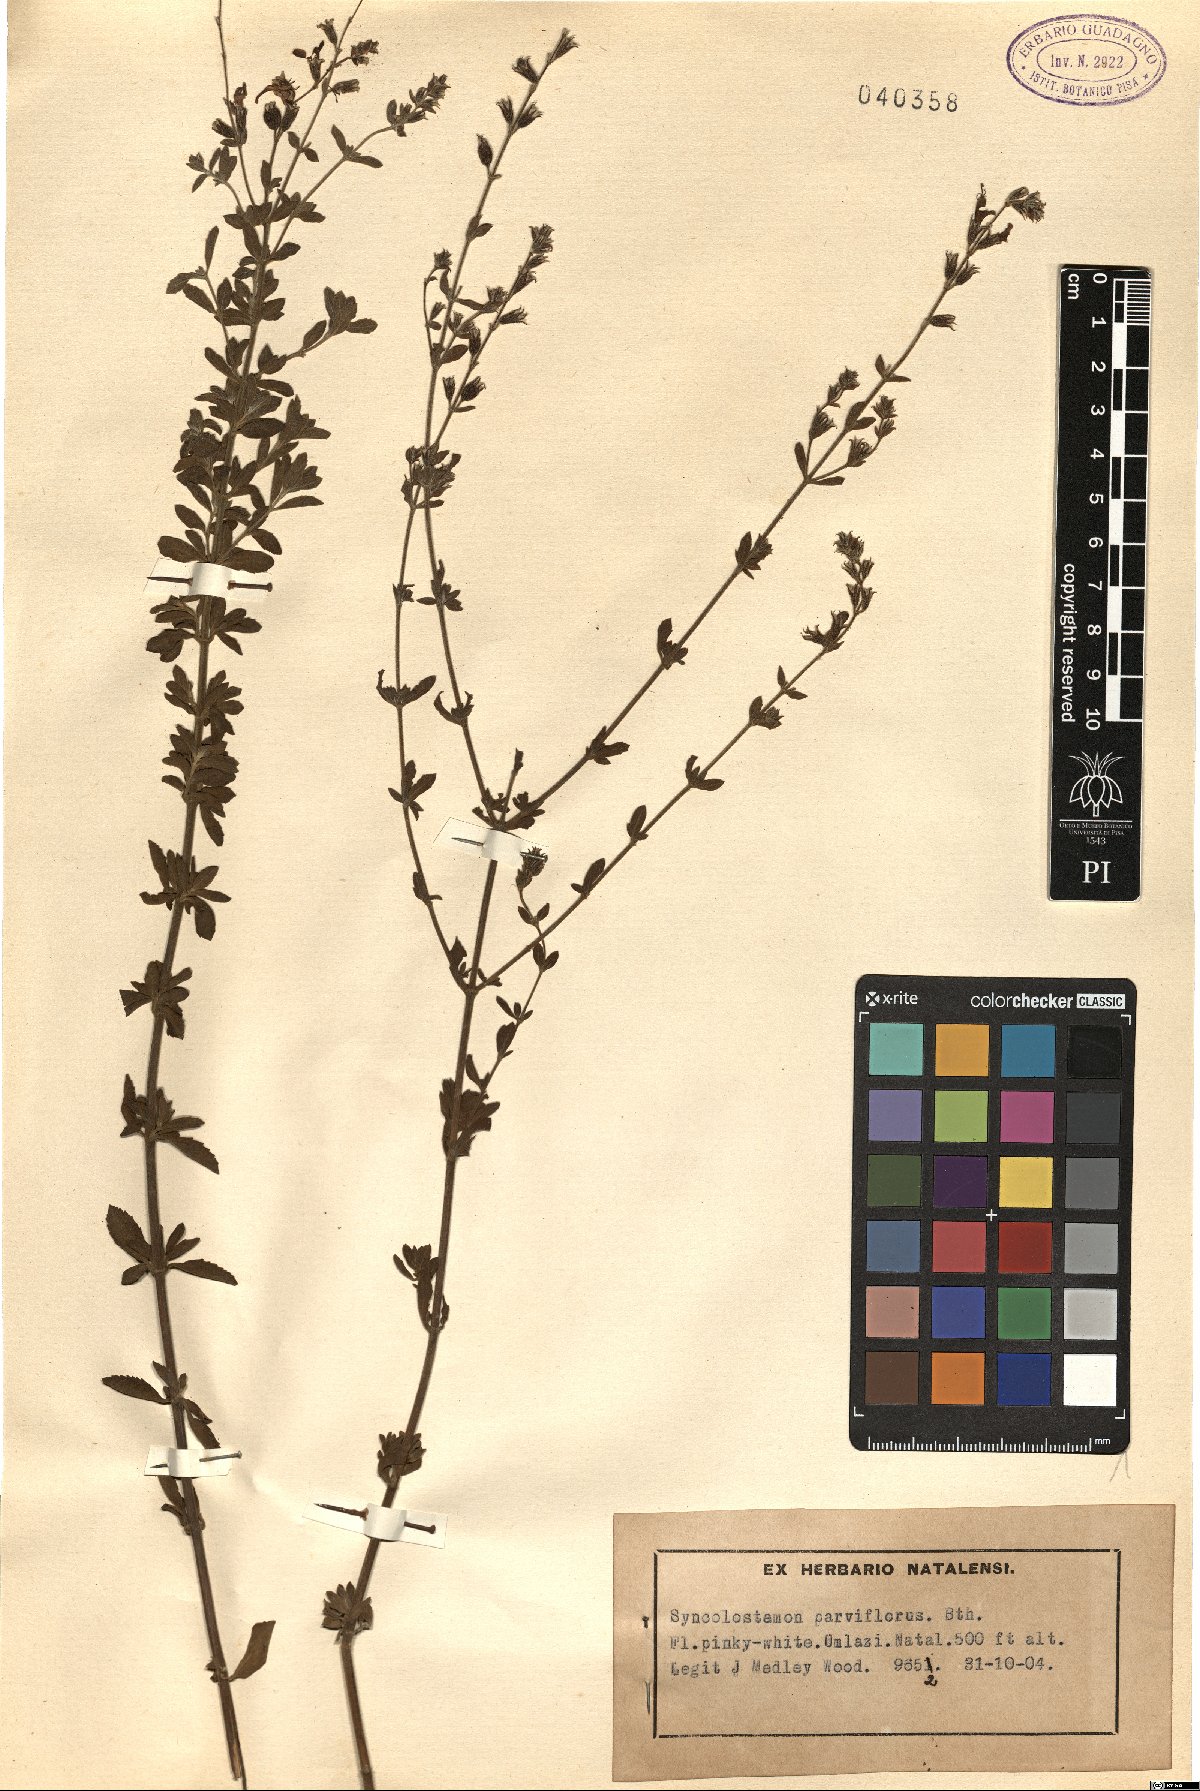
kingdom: Plantae
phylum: Tracheophyta
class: Magnoliopsida
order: Lamiales
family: Lamiaceae
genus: Syncolostemon
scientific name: Syncolostemon parviflorus
